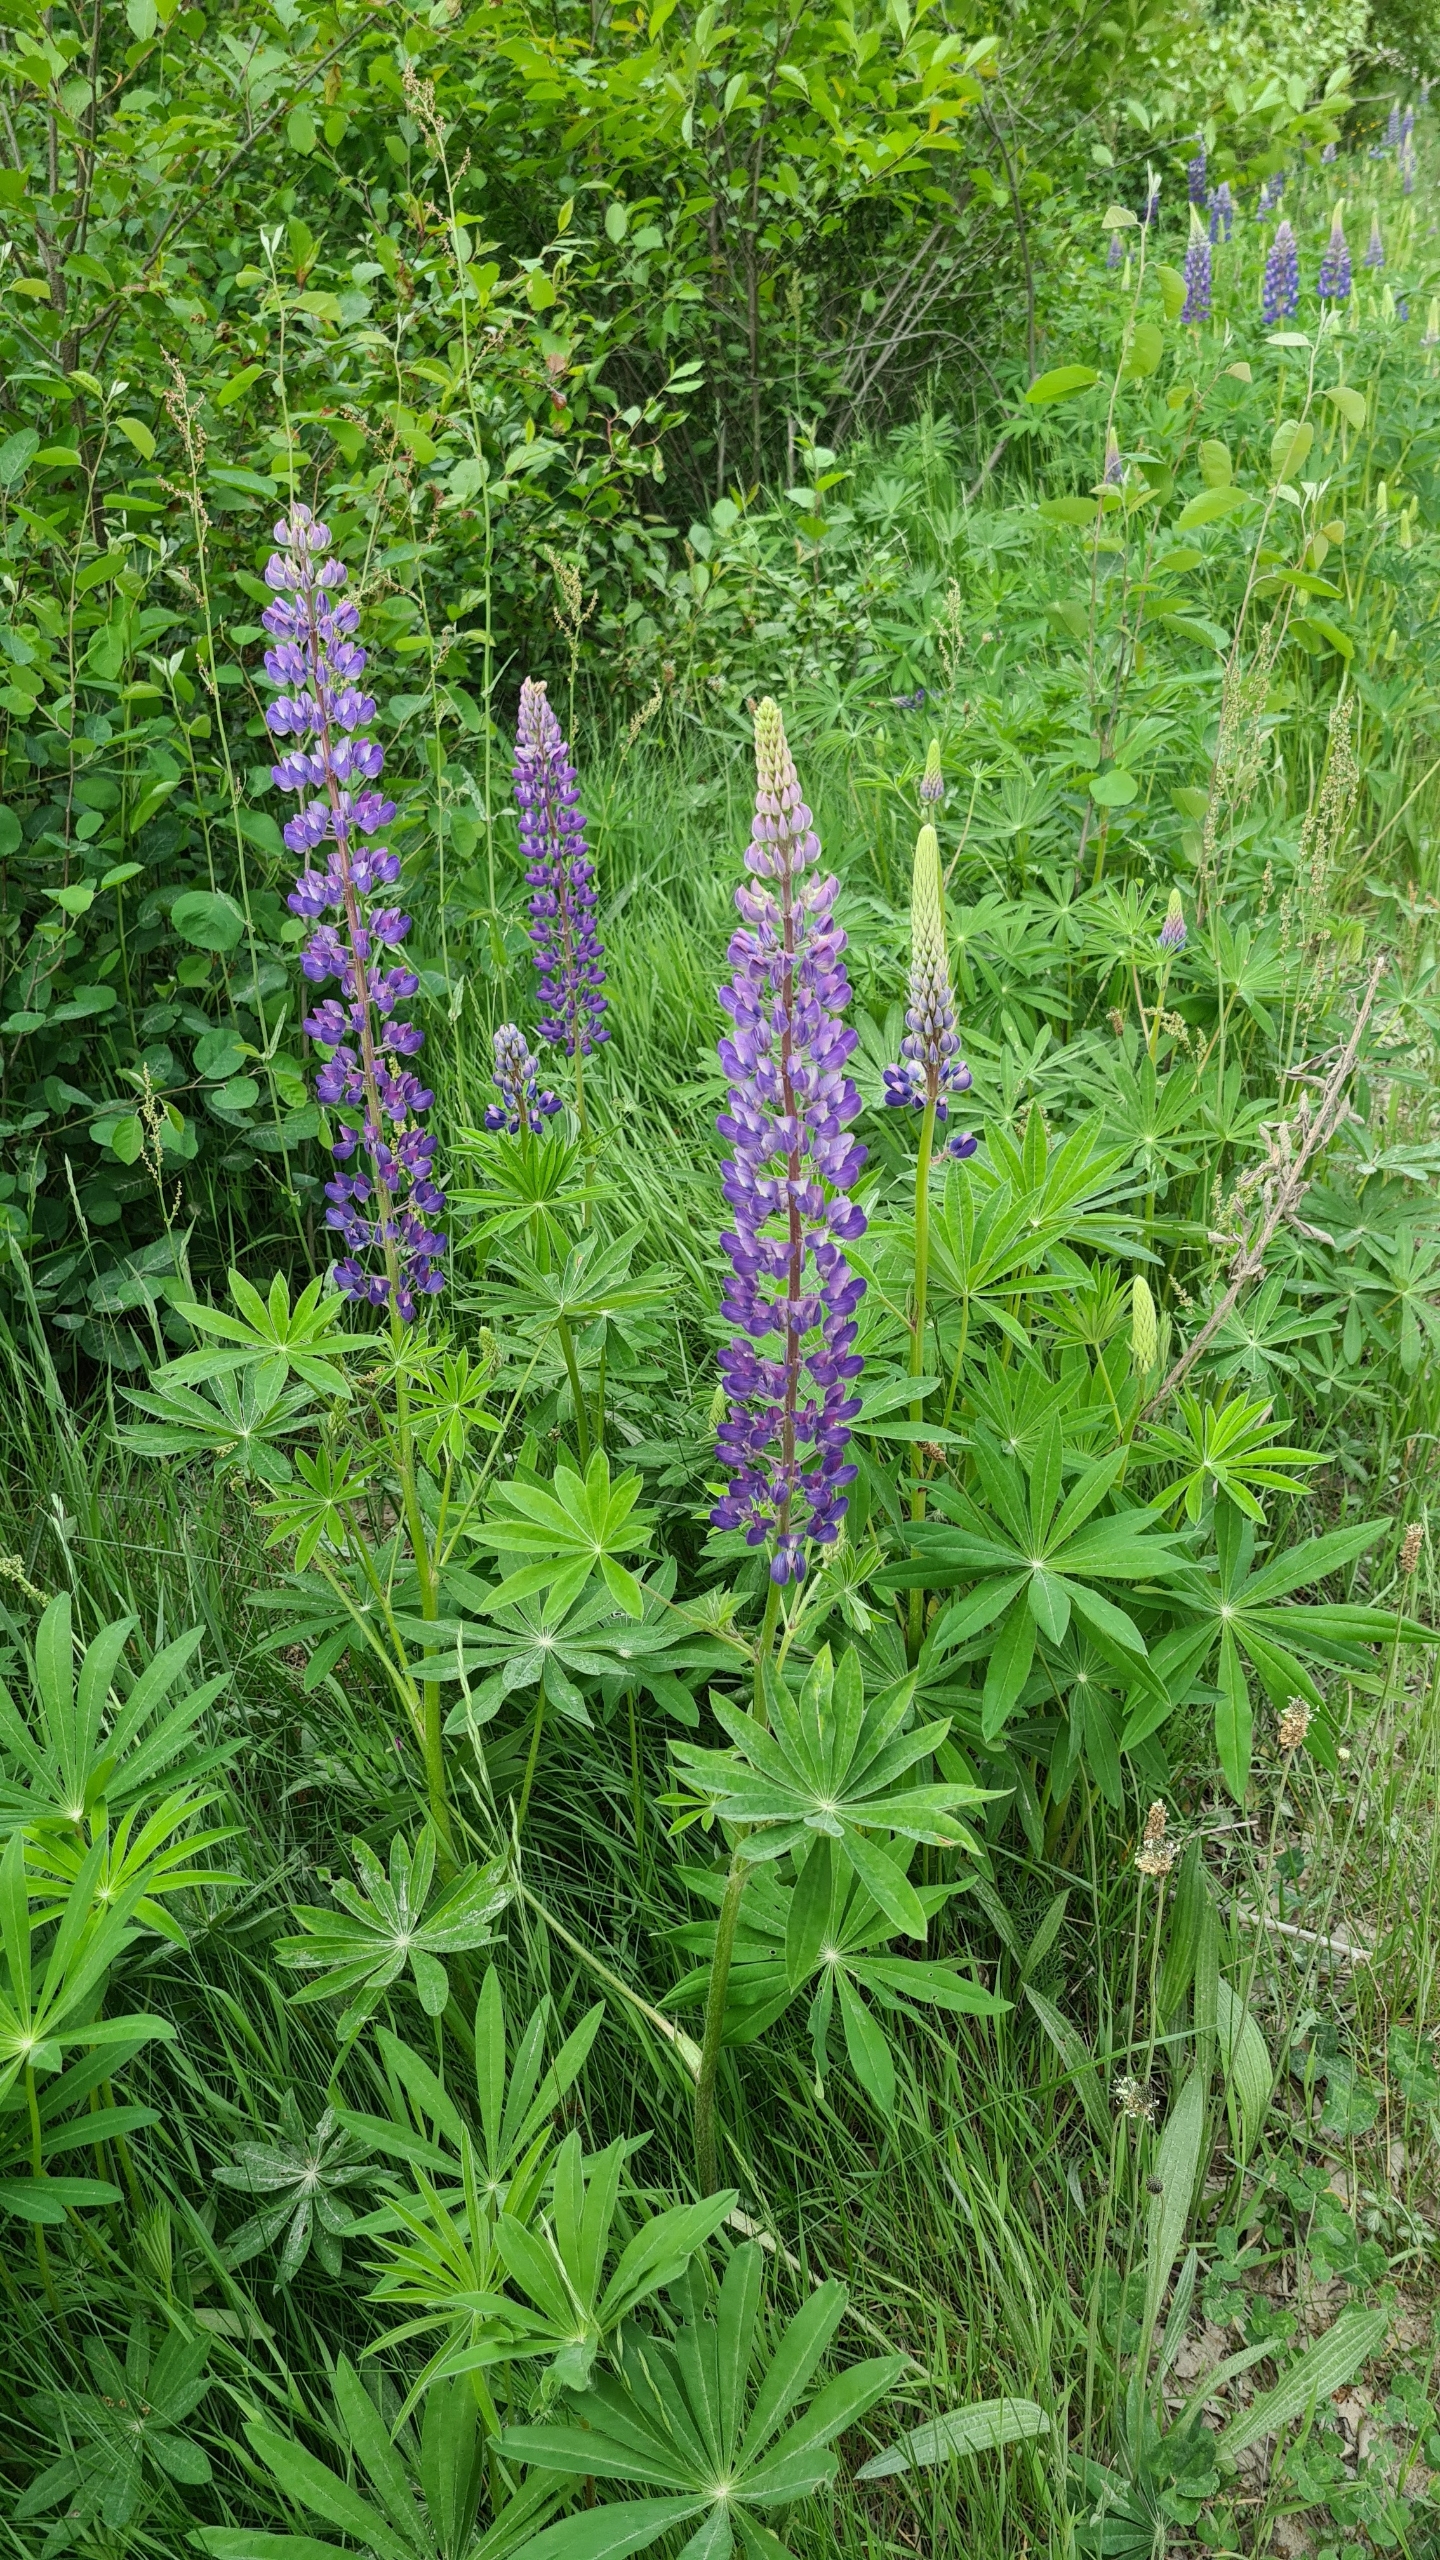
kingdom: Plantae
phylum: Tracheophyta
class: Magnoliopsida
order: Fabales
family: Fabaceae
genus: Lupinus
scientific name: Lupinus polyphyllus
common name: Mangebladet lupin
